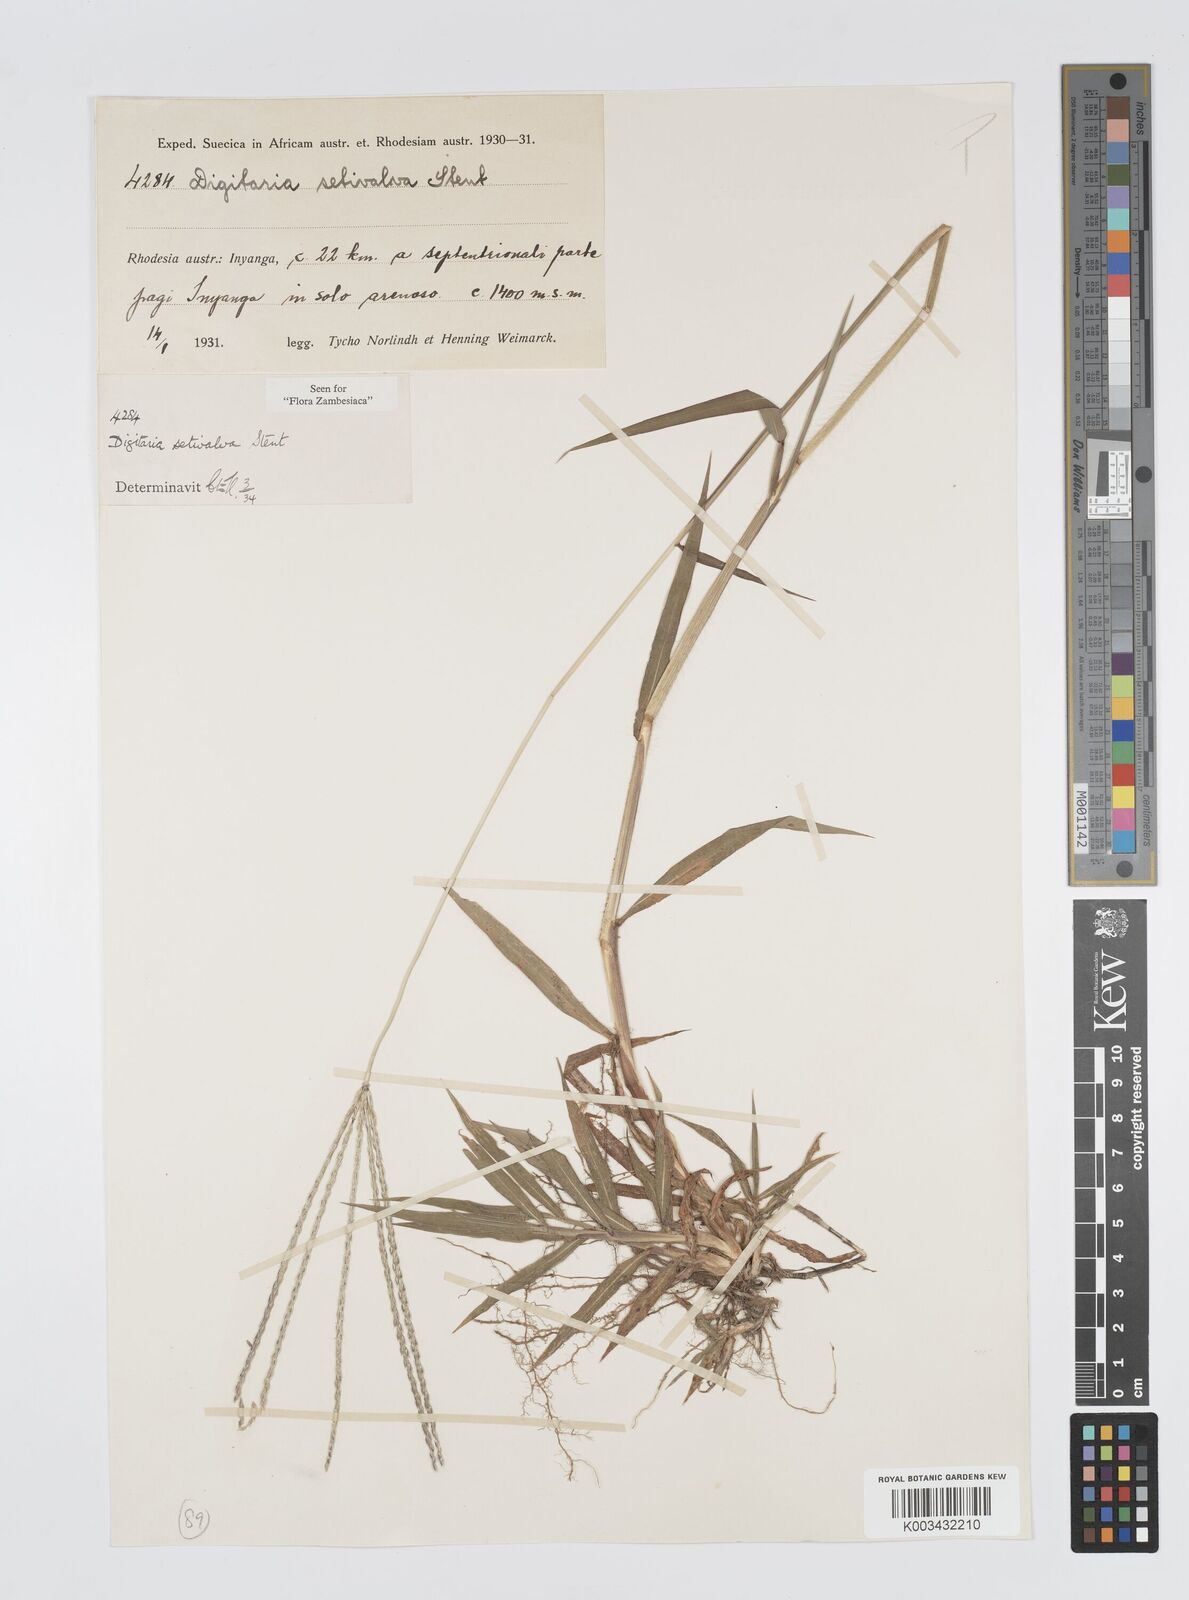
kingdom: Plantae
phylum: Tracheophyta
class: Liliopsida
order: Poales
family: Poaceae
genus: Digitaria
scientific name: Digitaria milanjiana
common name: Madagascar crabgrass
